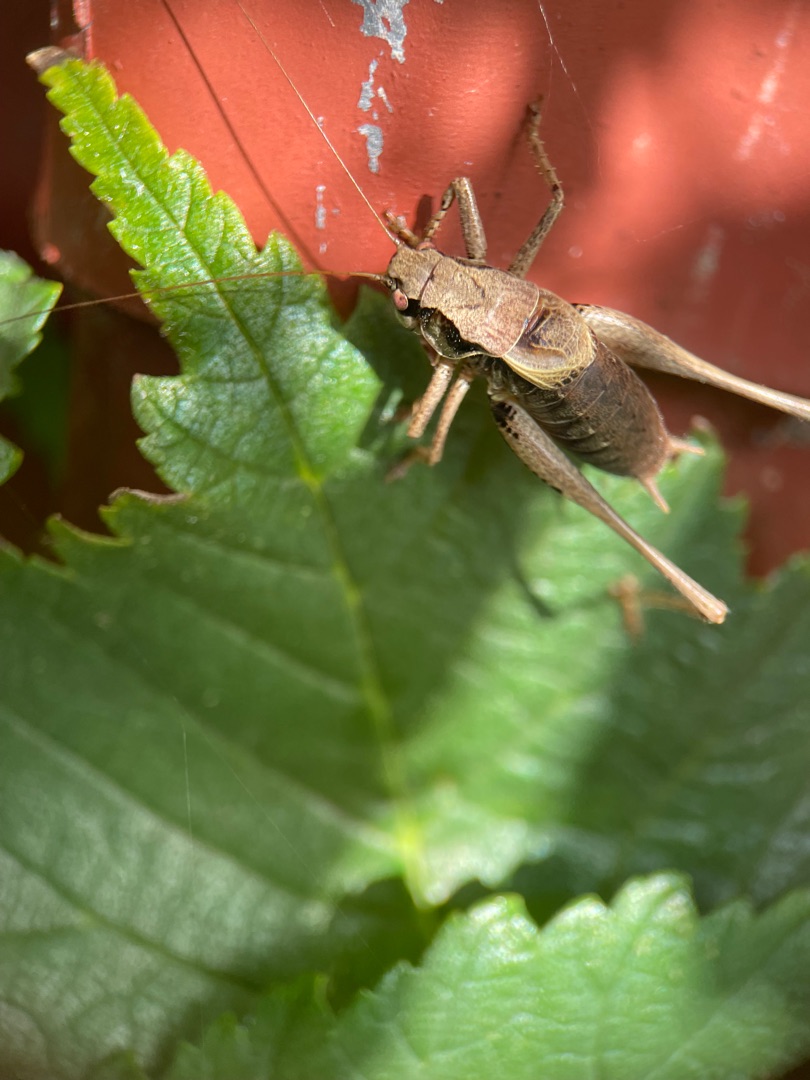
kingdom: Animalia
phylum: Arthropoda
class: Insecta
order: Orthoptera
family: Tettigoniidae
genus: Pholidoptera
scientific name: Pholidoptera griseoaptera
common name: Buskgræshoppe
